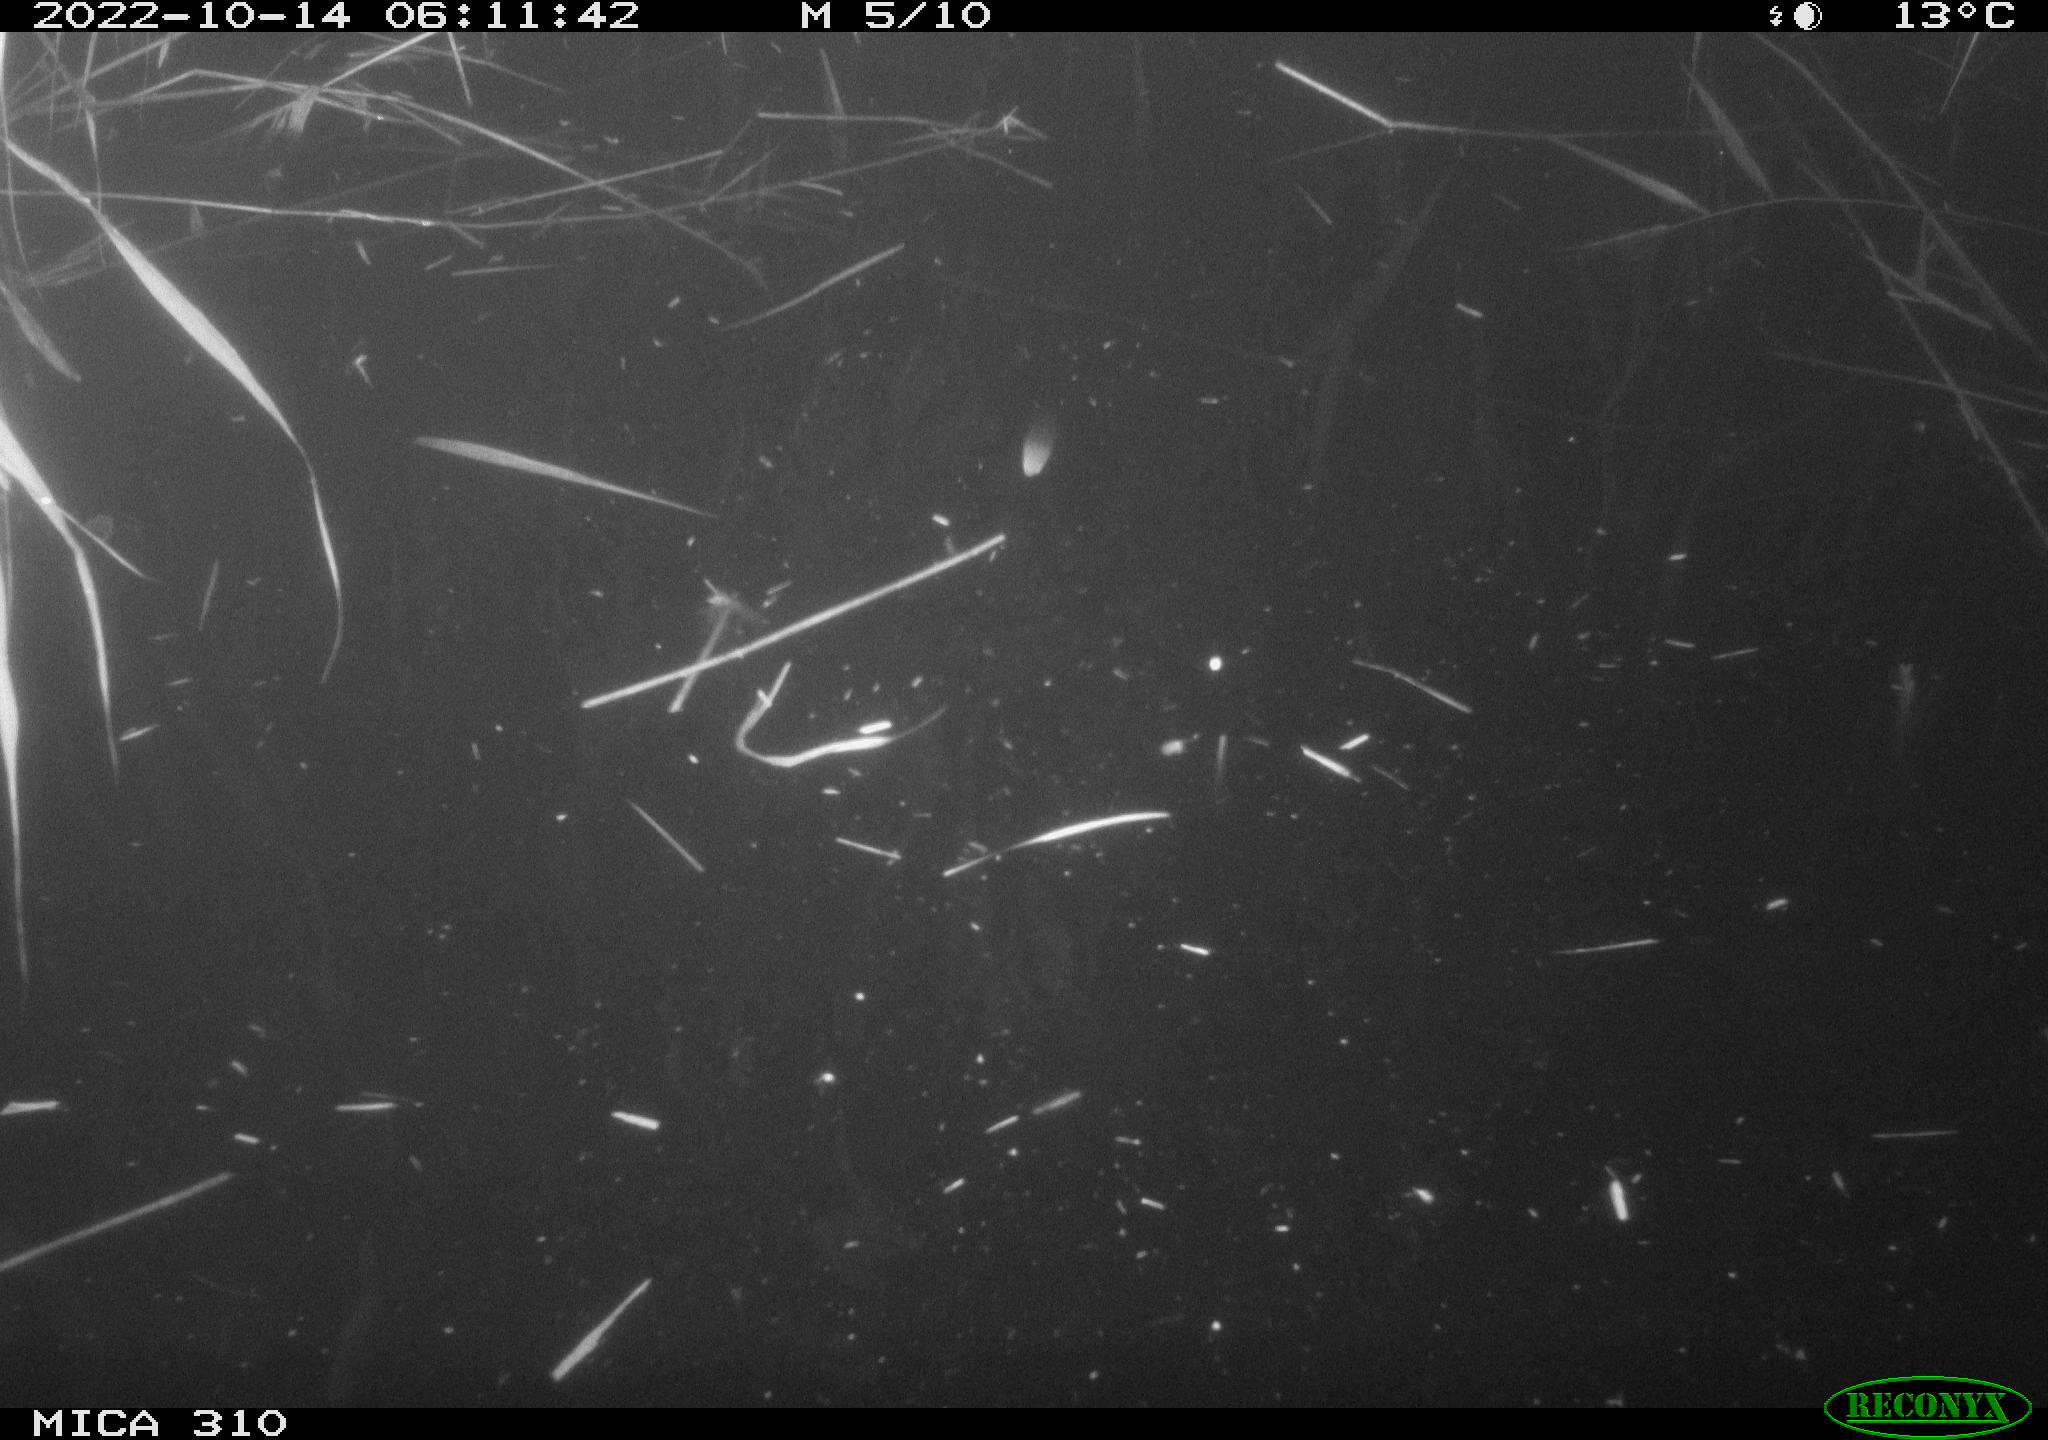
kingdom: Animalia
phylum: Chordata
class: Mammalia
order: Rodentia
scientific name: Rodentia
